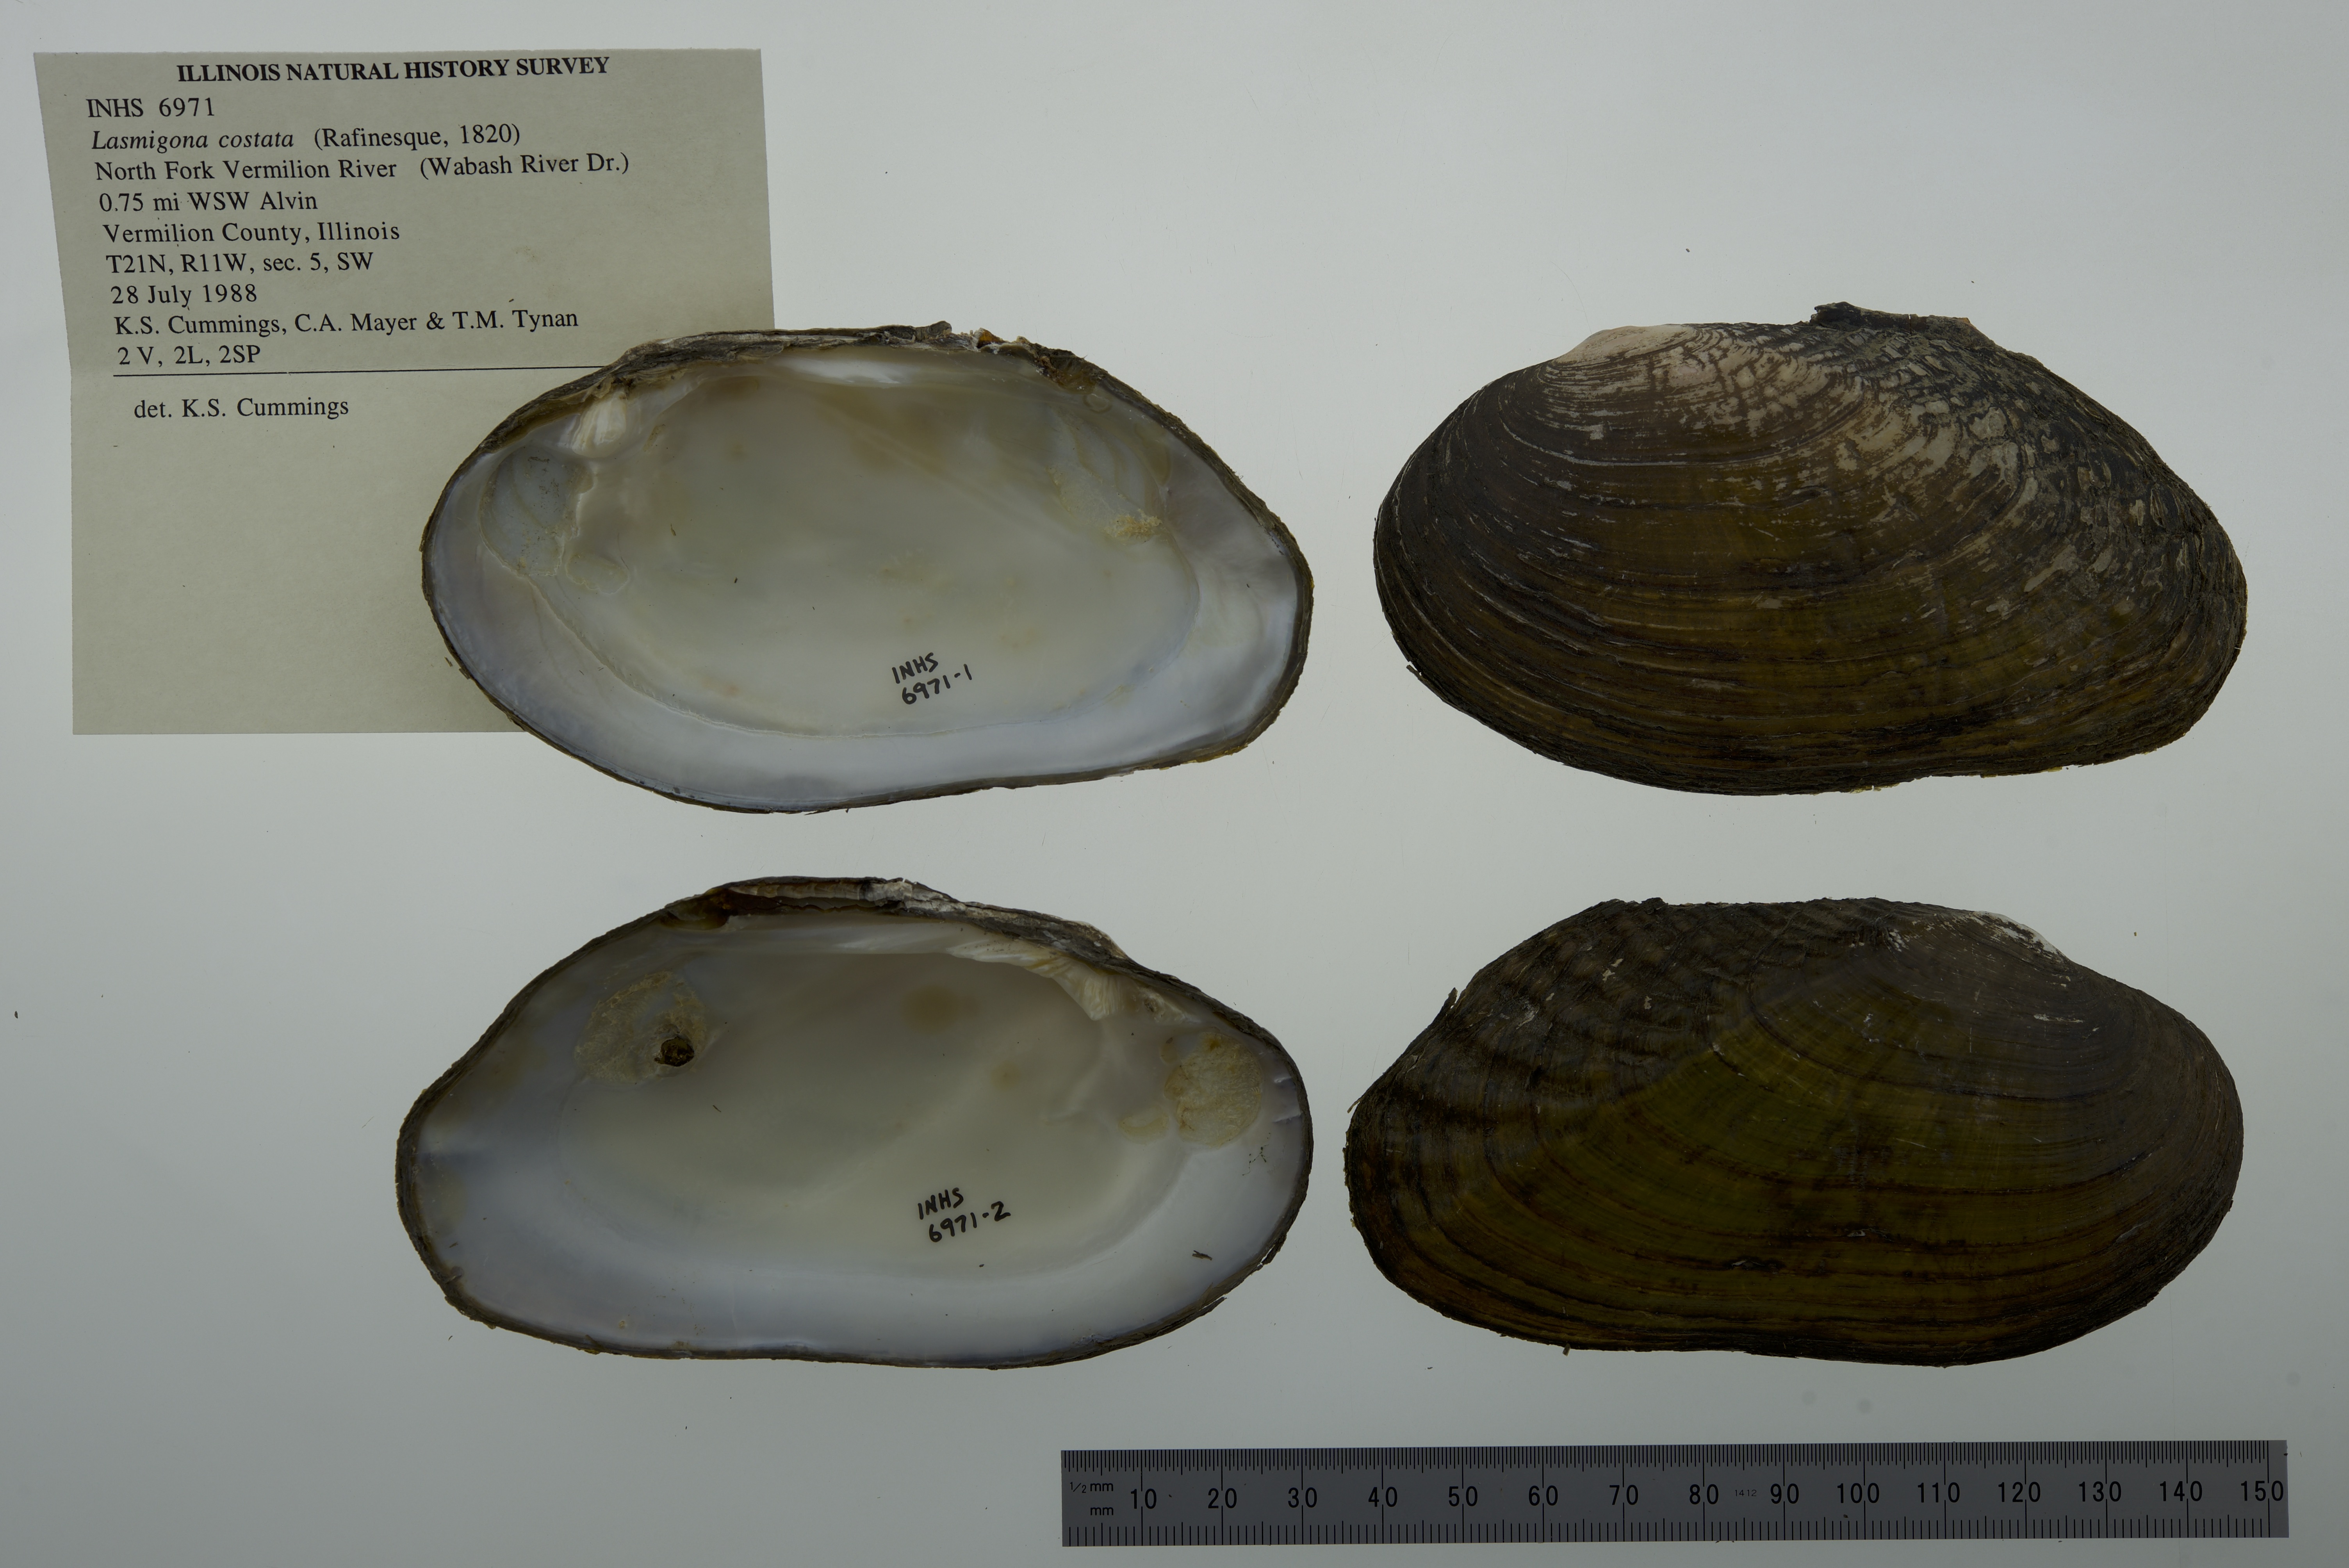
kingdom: Animalia
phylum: Mollusca
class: Bivalvia
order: Unionida
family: Unionidae
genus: Lasmigona
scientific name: Lasmigona costata
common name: Flutedshell
